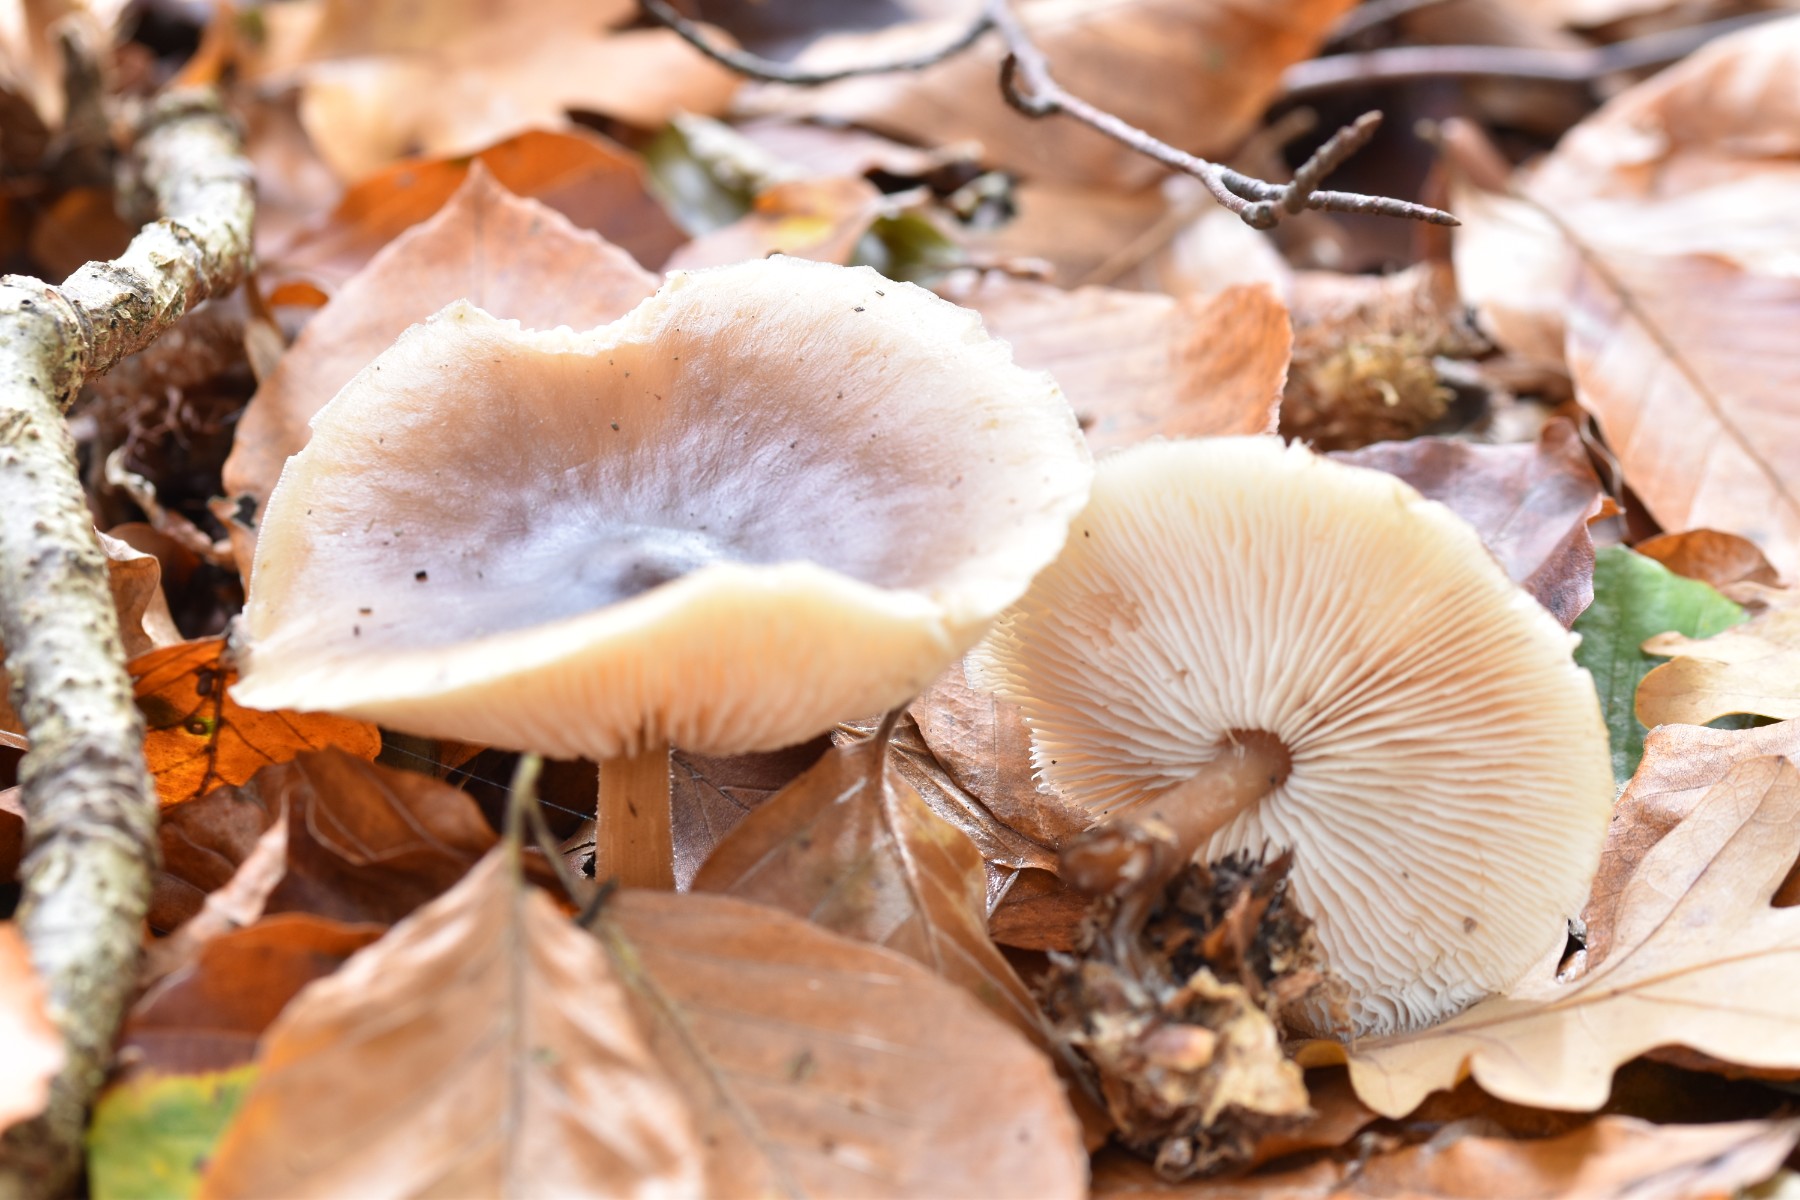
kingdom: Fungi
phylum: Basidiomycota
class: Agaricomycetes
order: Agaricales
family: Omphalotaceae
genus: Rhodocollybia
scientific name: Rhodocollybia asema
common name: horngrå fladhat
